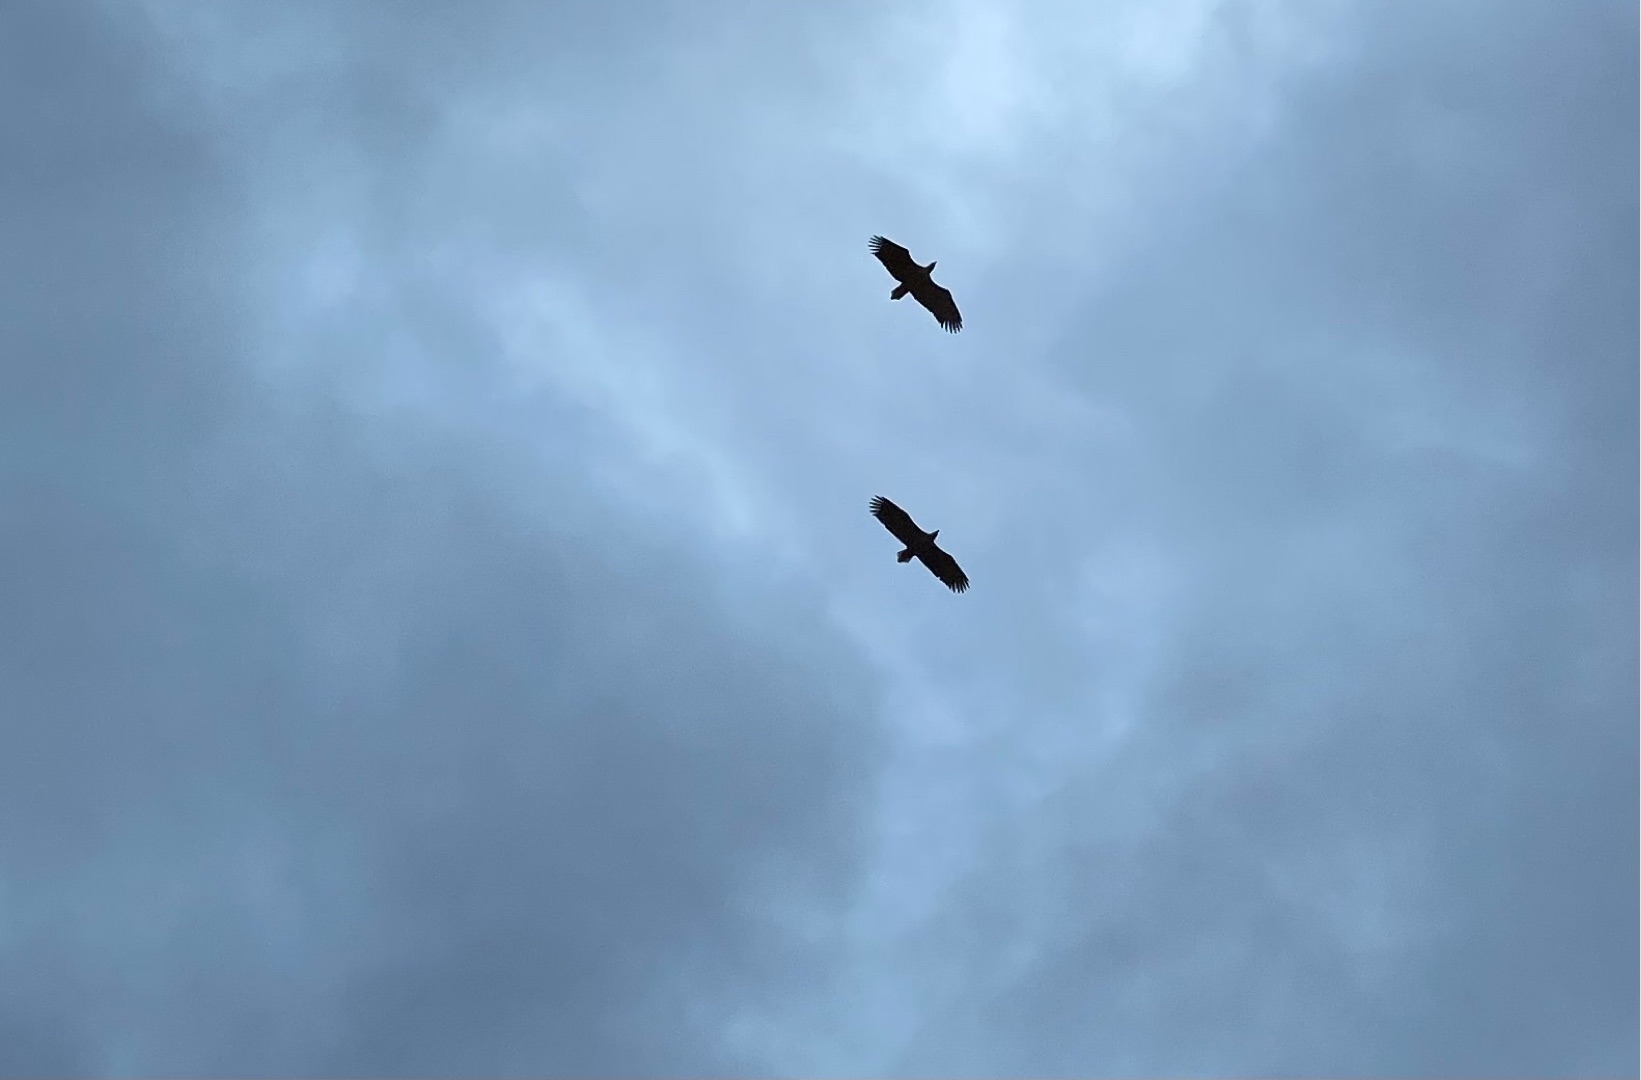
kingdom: Animalia
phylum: Chordata
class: Aves
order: Accipitriformes
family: Accipitridae
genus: Haliaeetus
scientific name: Haliaeetus albicilla
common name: Havørn
